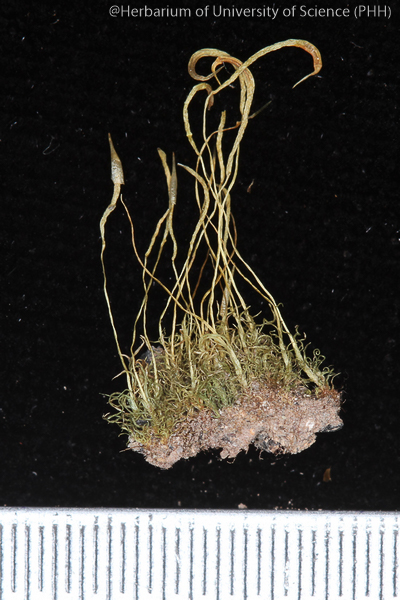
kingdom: Plantae
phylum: Bryophyta
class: Bryopsida
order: Dicranales
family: Bruchiaceae
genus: Trematodon
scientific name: Trematodon
